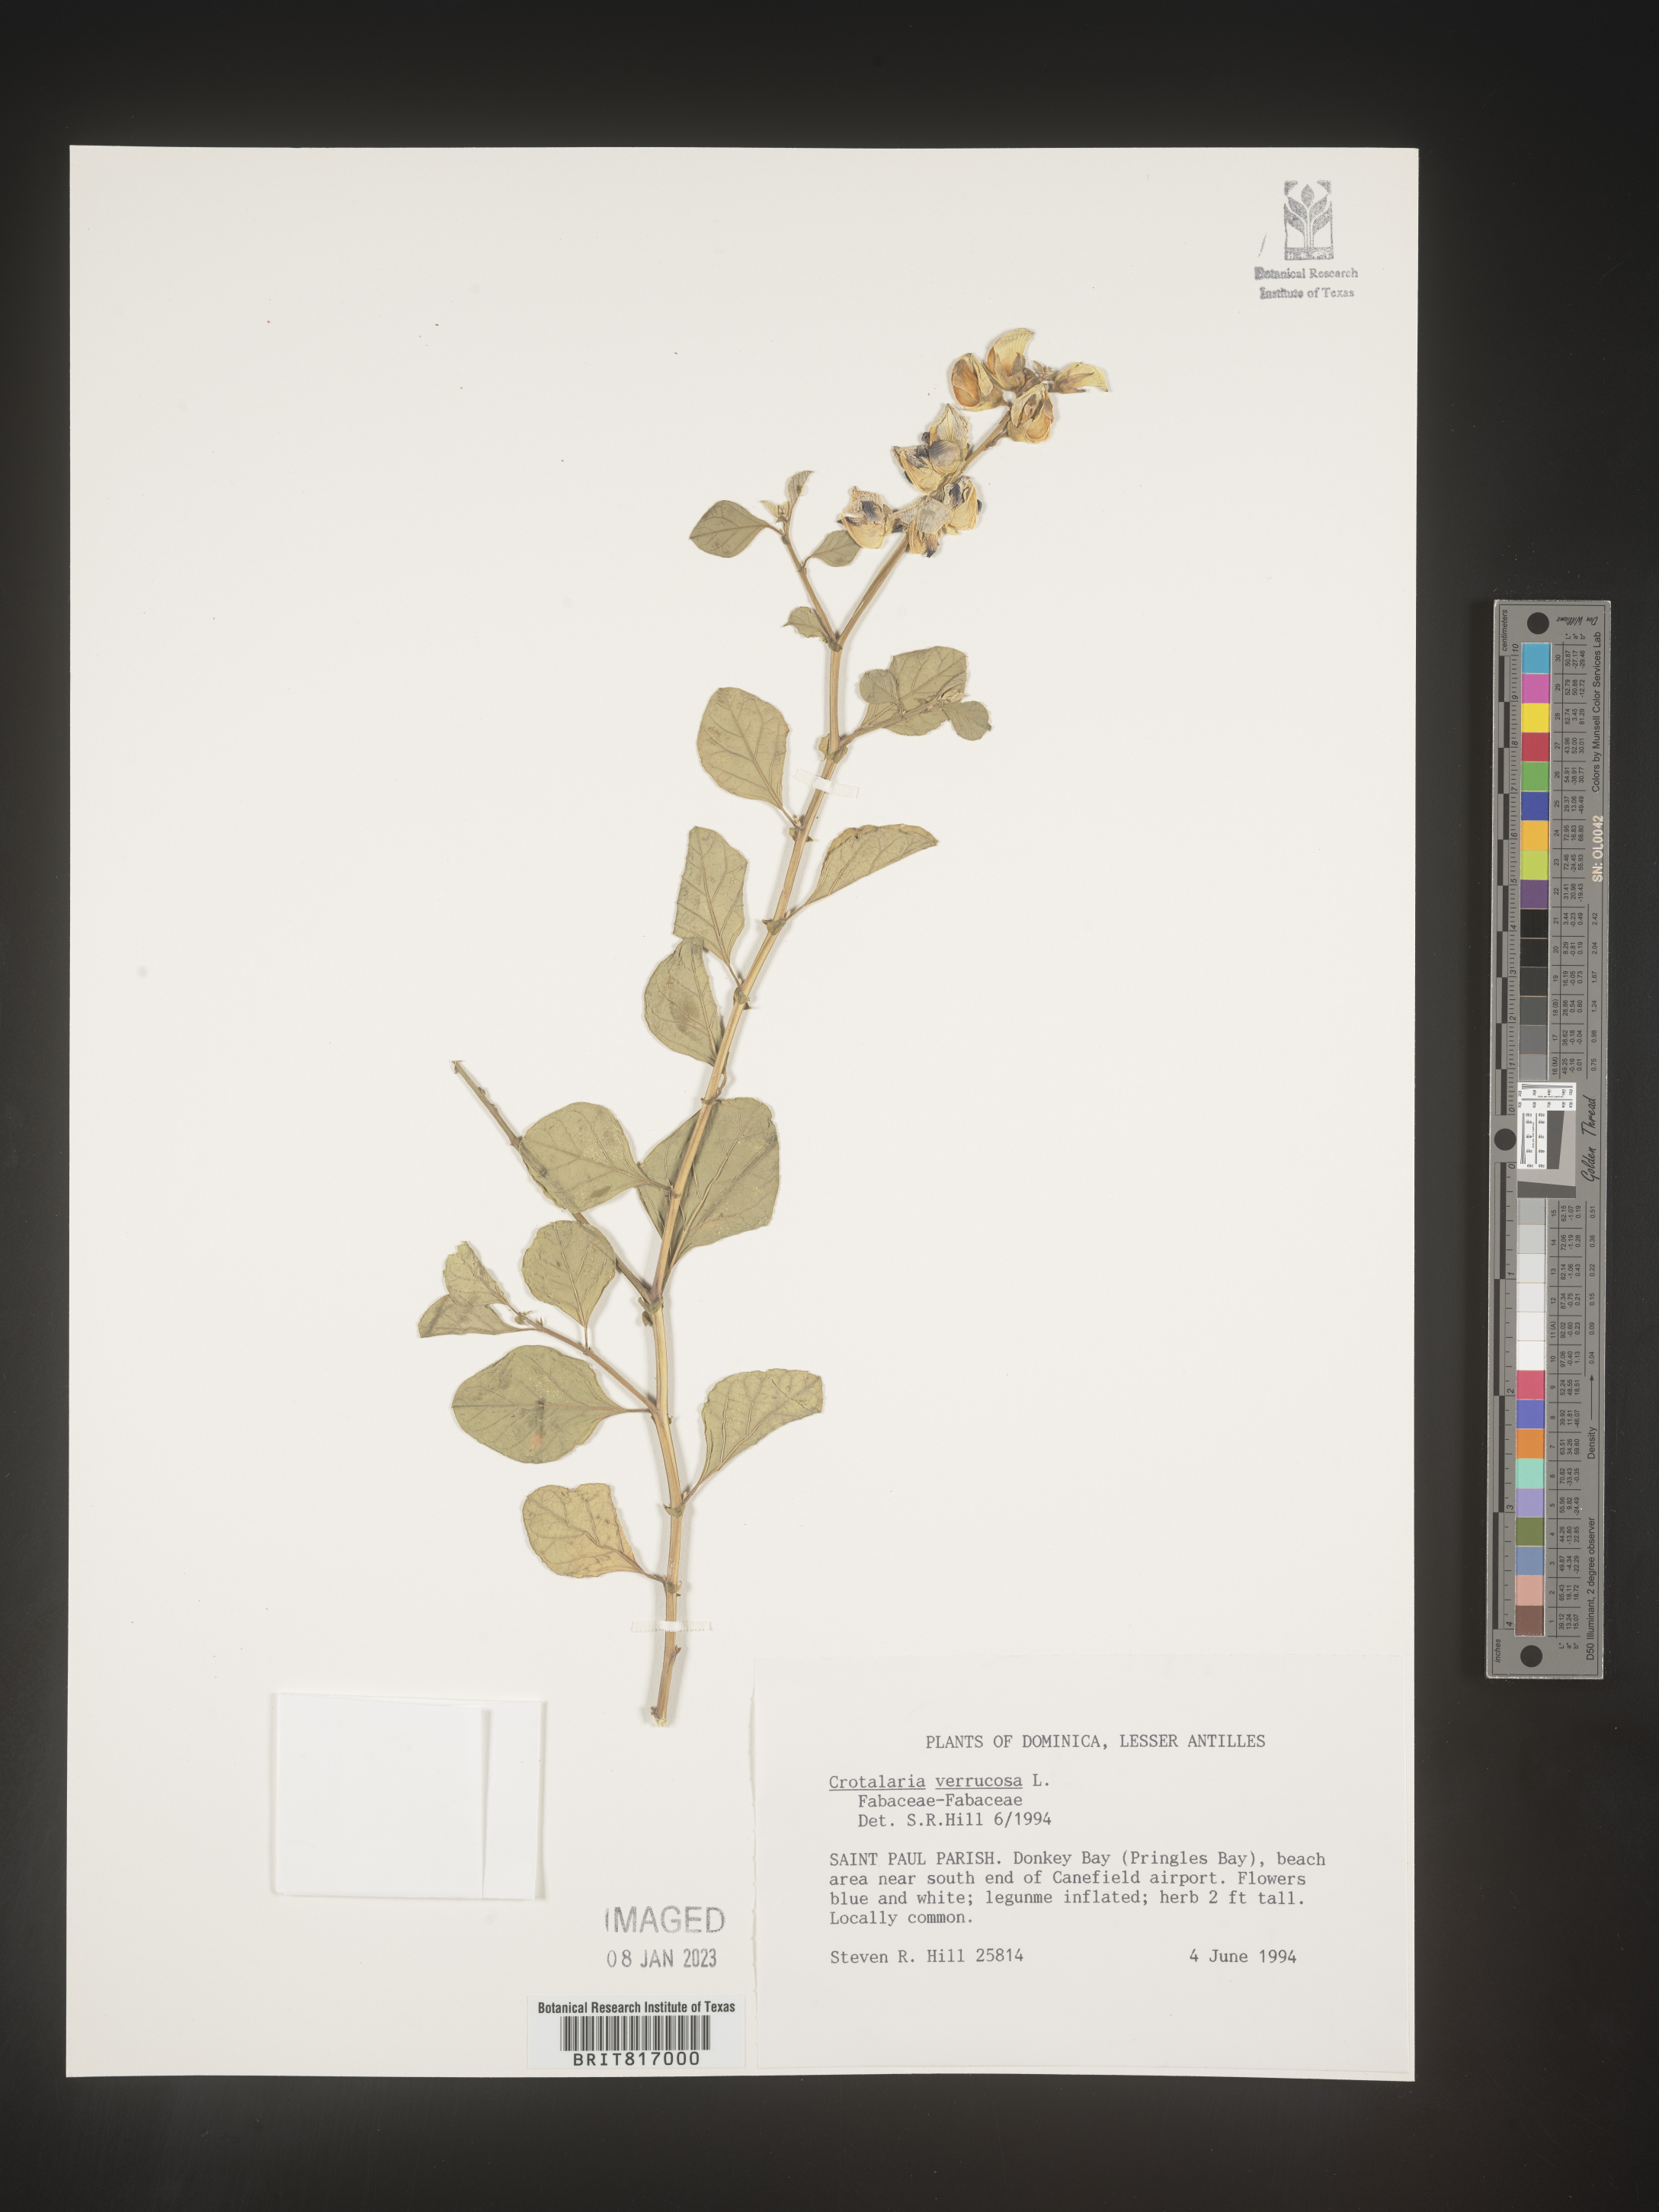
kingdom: Plantae
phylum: Tracheophyta
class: Magnoliopsida
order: Fabales
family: Fabaceae
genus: Crotalaria
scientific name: Crotalaria
